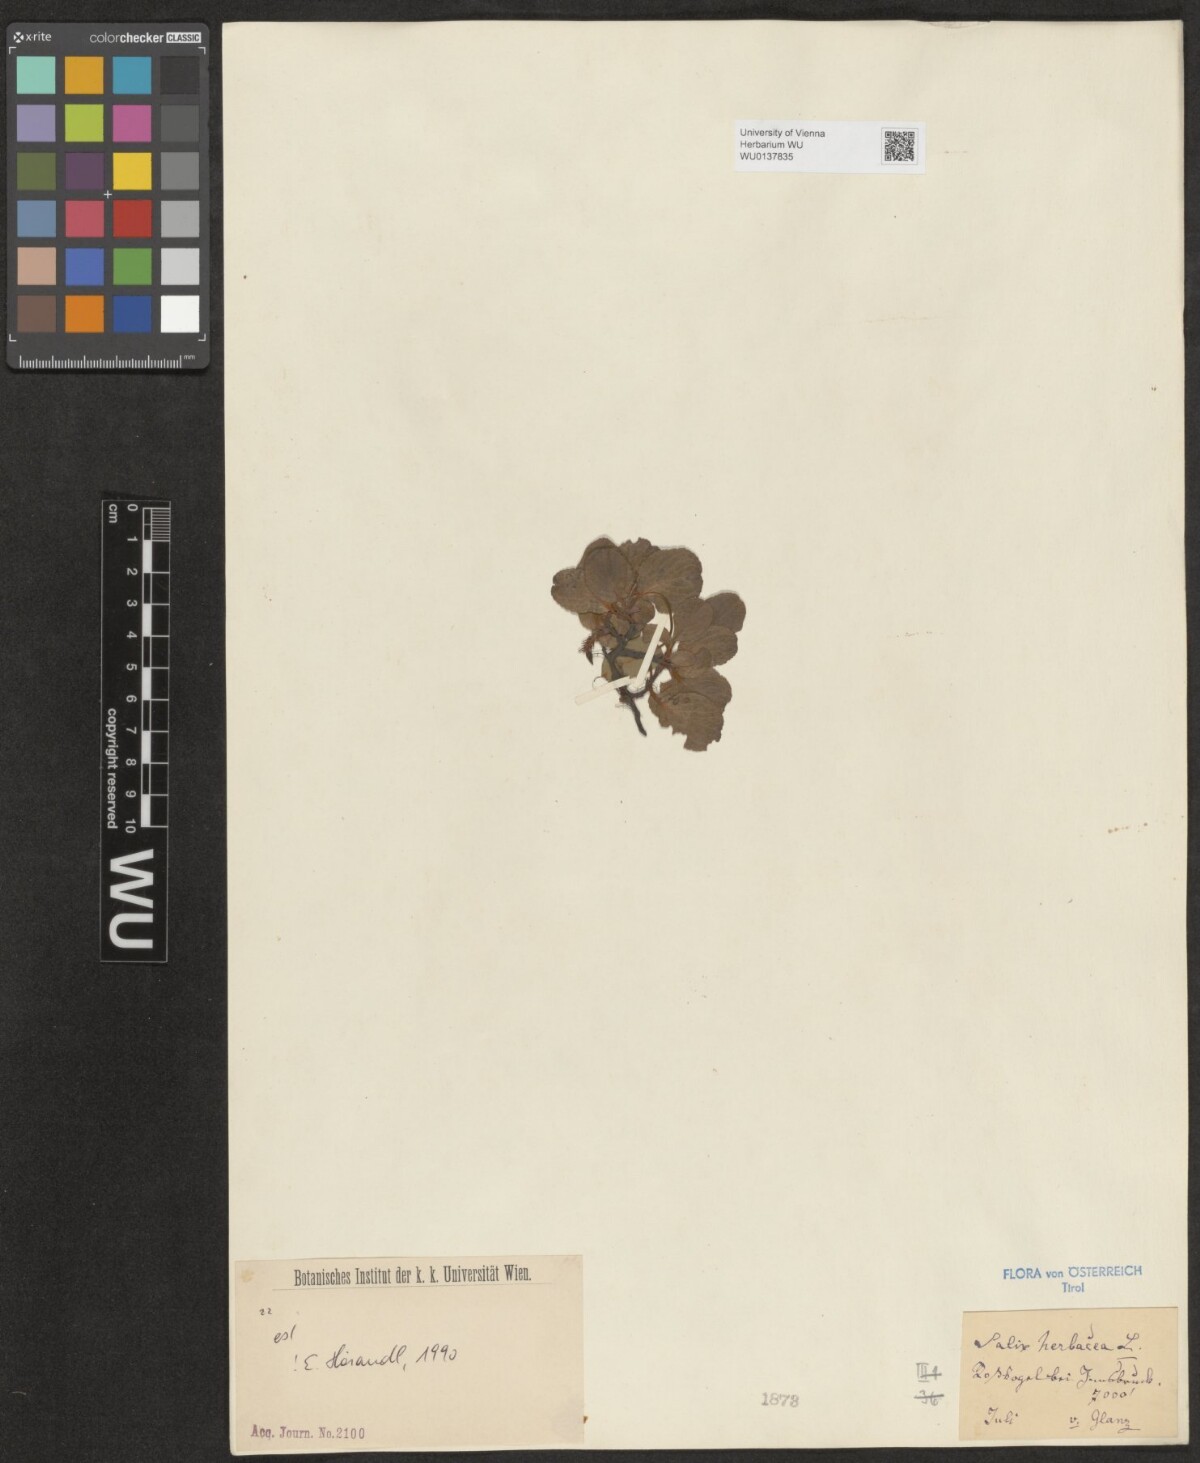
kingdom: Plantae
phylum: Tracheophyta
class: Magnoliopsida
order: Malpighiales
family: Salicaceae
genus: Salix
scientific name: Salix herbacea
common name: Dwarf willow
